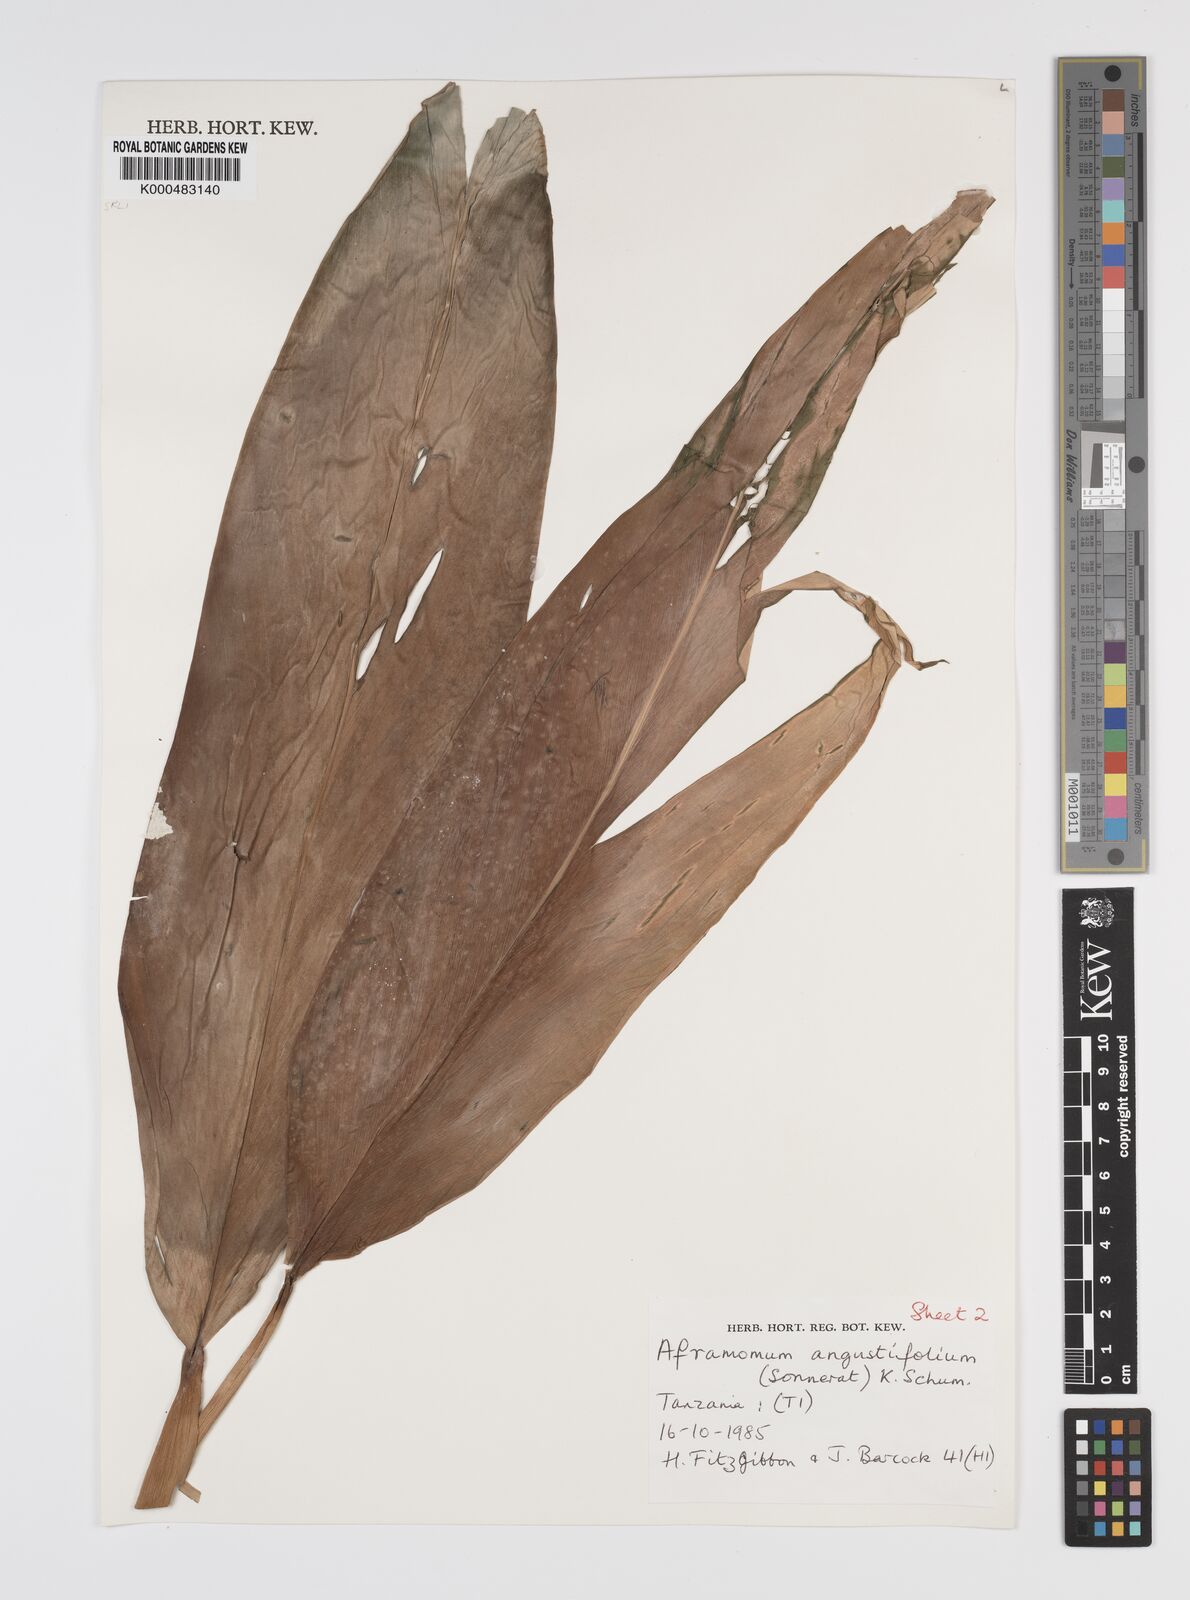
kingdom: Plantae
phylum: Tracheophyta
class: Liliopsida
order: Zingiberales
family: Zingiberaceae
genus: Aframomum
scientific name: Aframomum angustifolium
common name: Guinea grains
